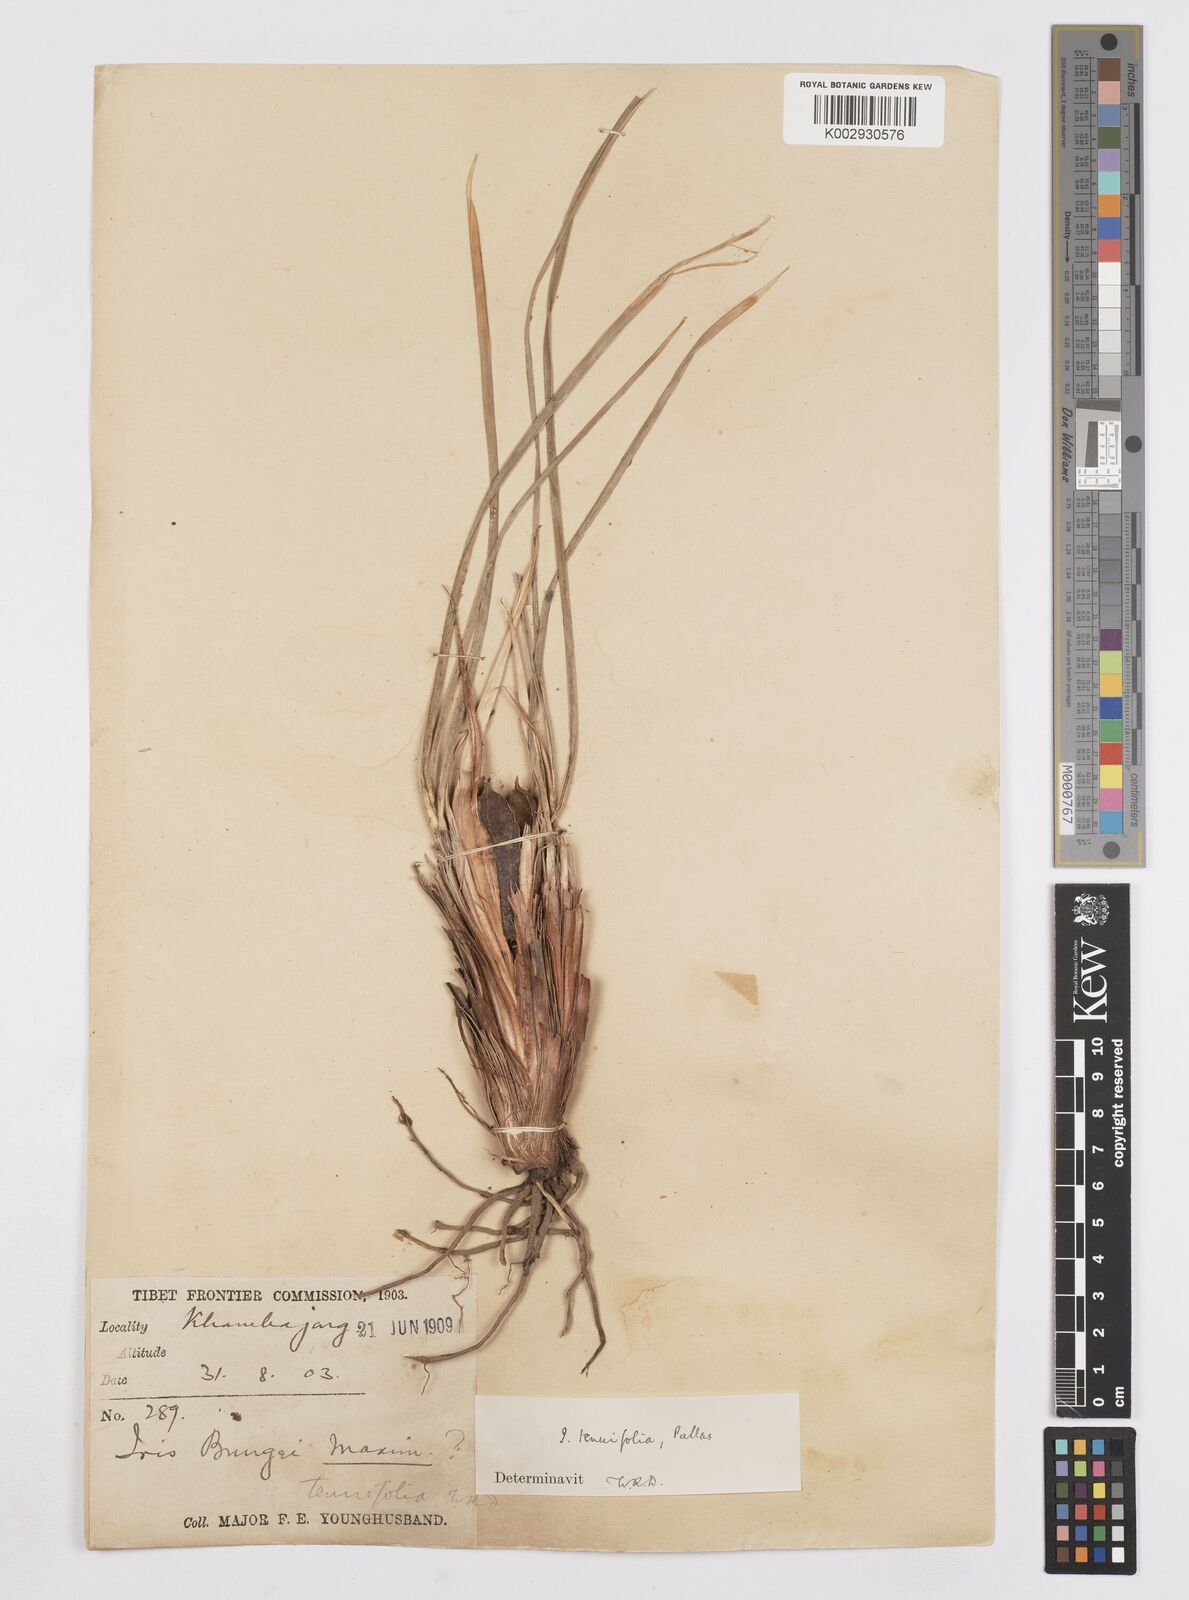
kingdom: Plantae
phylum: Tracheophyta
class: Liliopsida
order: Asparagales
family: Iridaceae
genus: Iris
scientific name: Iris tenuifolia
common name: Slender-leaf iris
